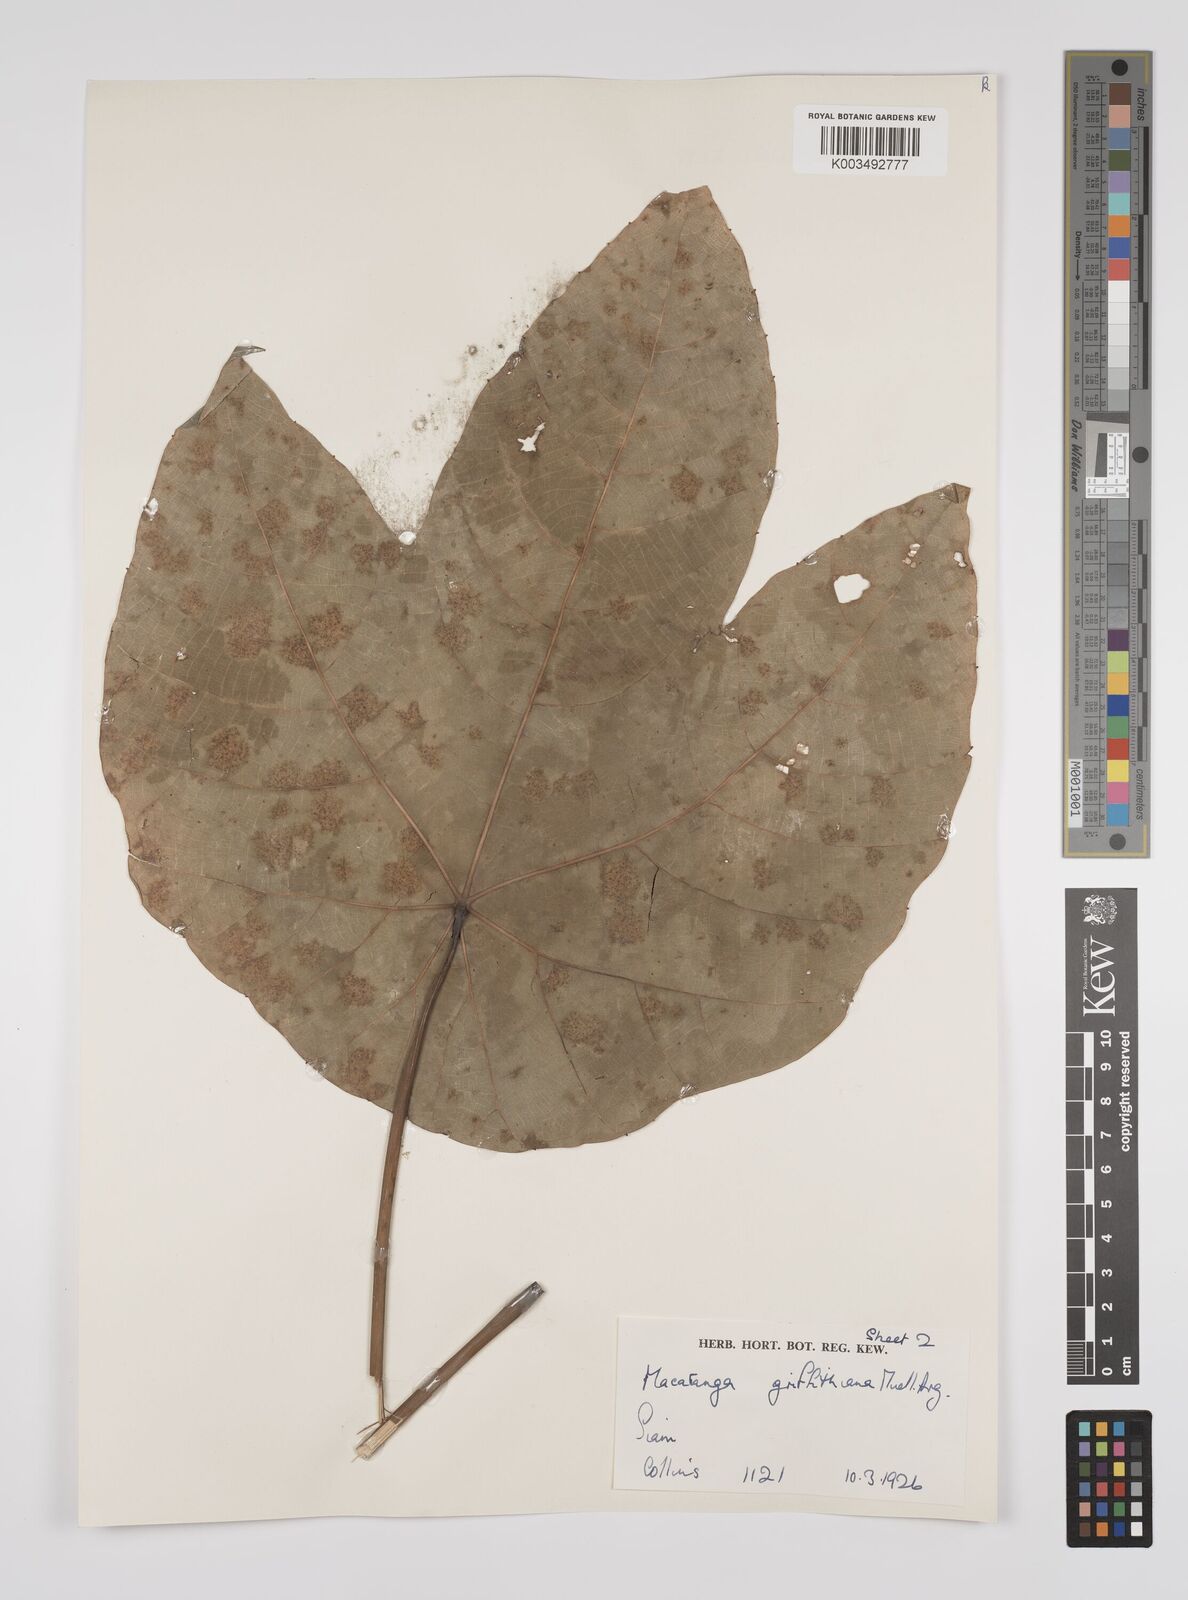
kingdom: Plantae
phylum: Tracheophyta
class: Magnoliopsida
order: Malpighiales
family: Euphorbiaceae
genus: Macaranga
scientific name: Macaranga griffithiana
